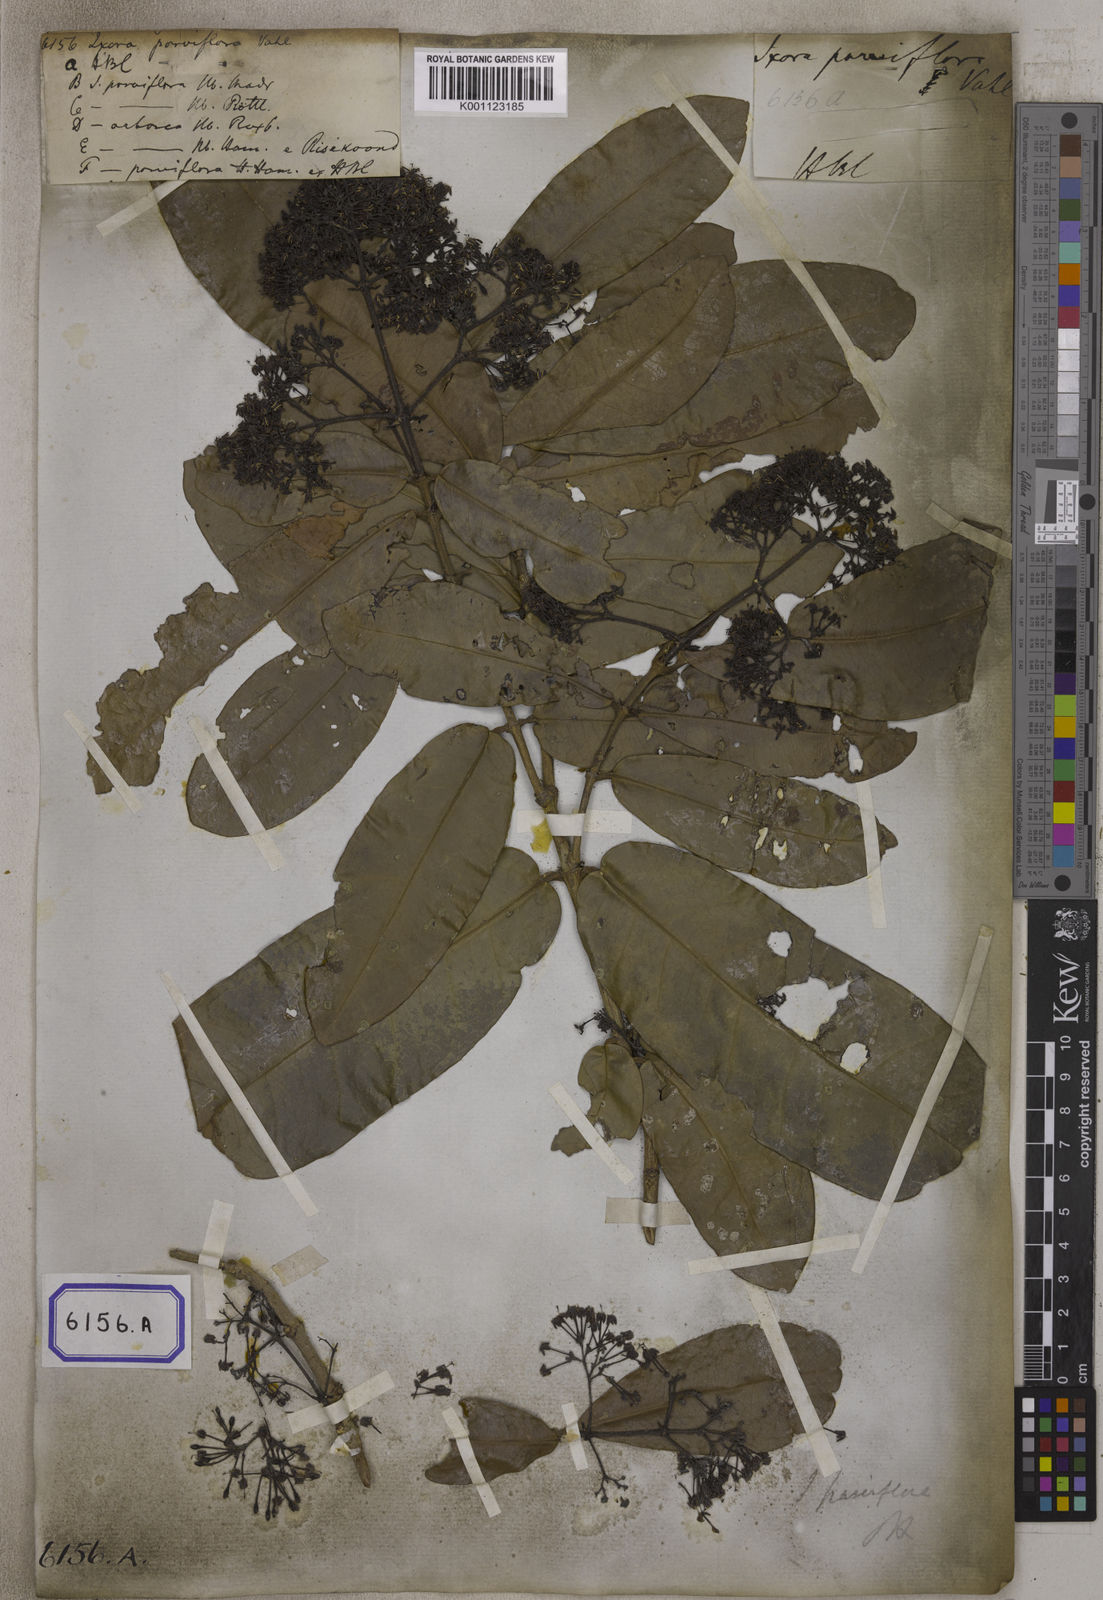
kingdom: Plantae
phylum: Tracheophyta
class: Magnoliopsida
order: Gentianales
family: Rubiaceae
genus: Ixora
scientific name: Ixora pavetta
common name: Torch tree
